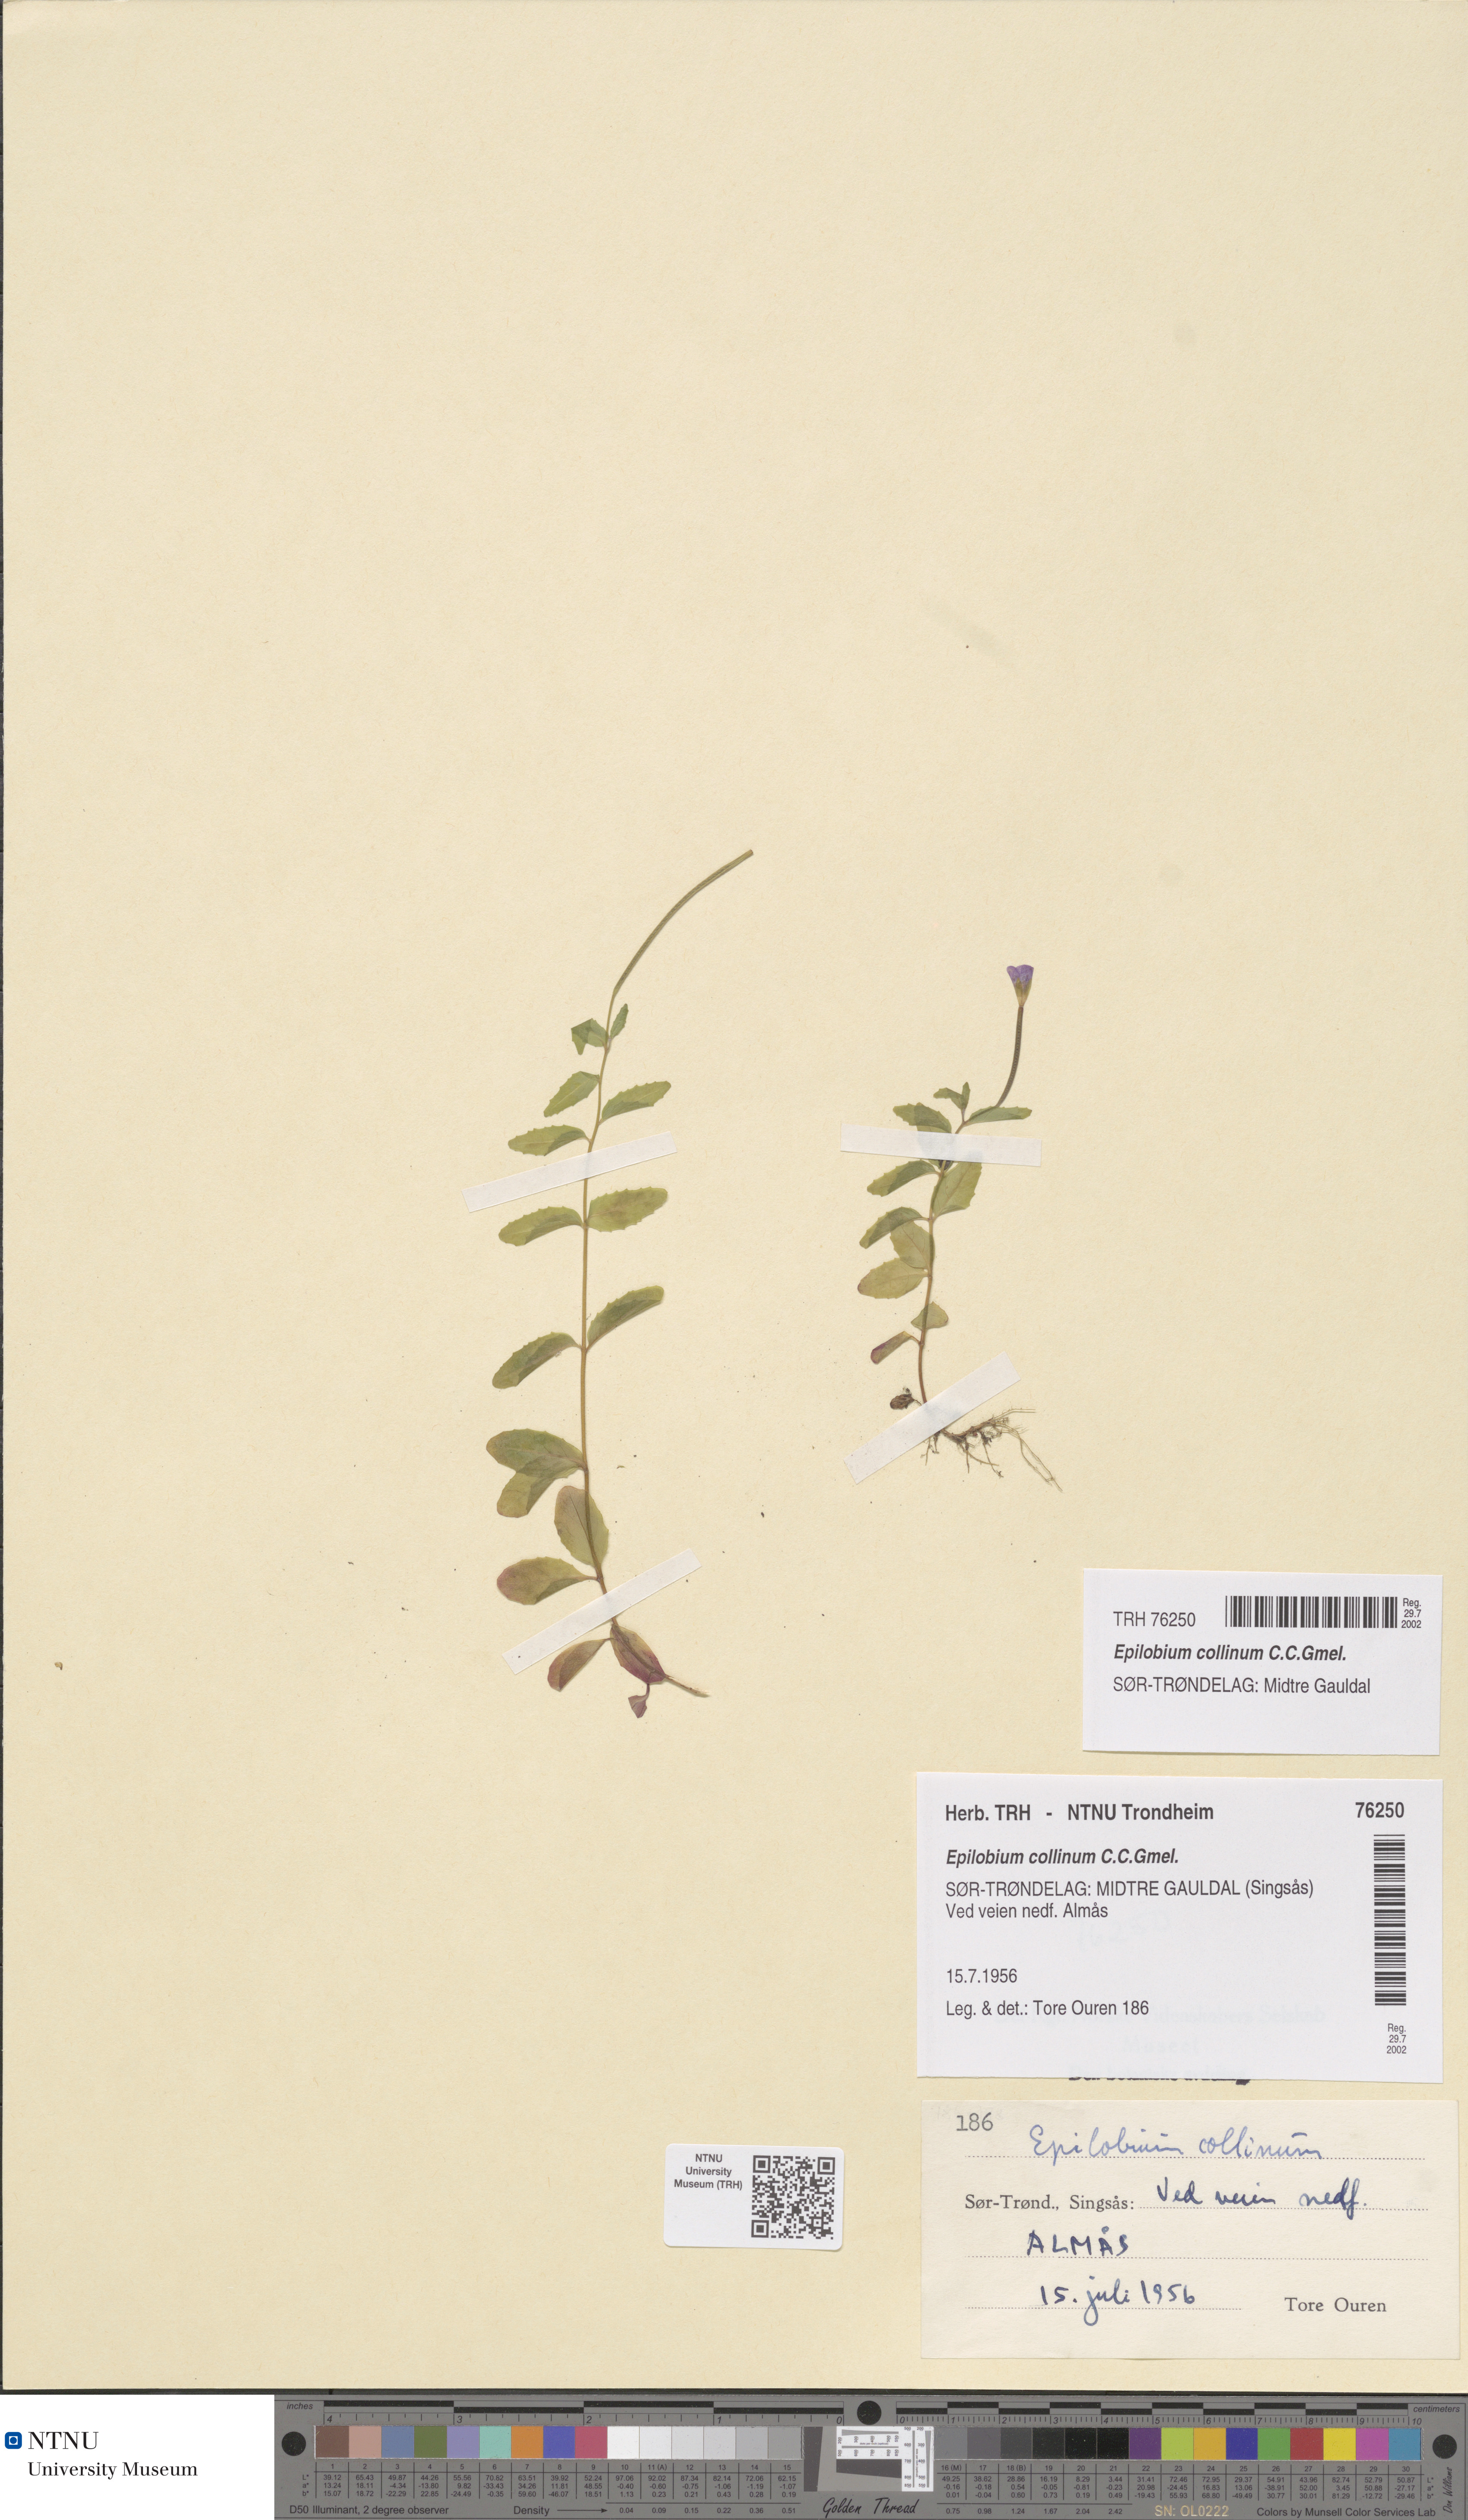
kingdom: Plantae
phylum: Tracheophyta
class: Magnoliopsida
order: Myrtales
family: Onagraceae
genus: Epilobium
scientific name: Epilobium collinum
